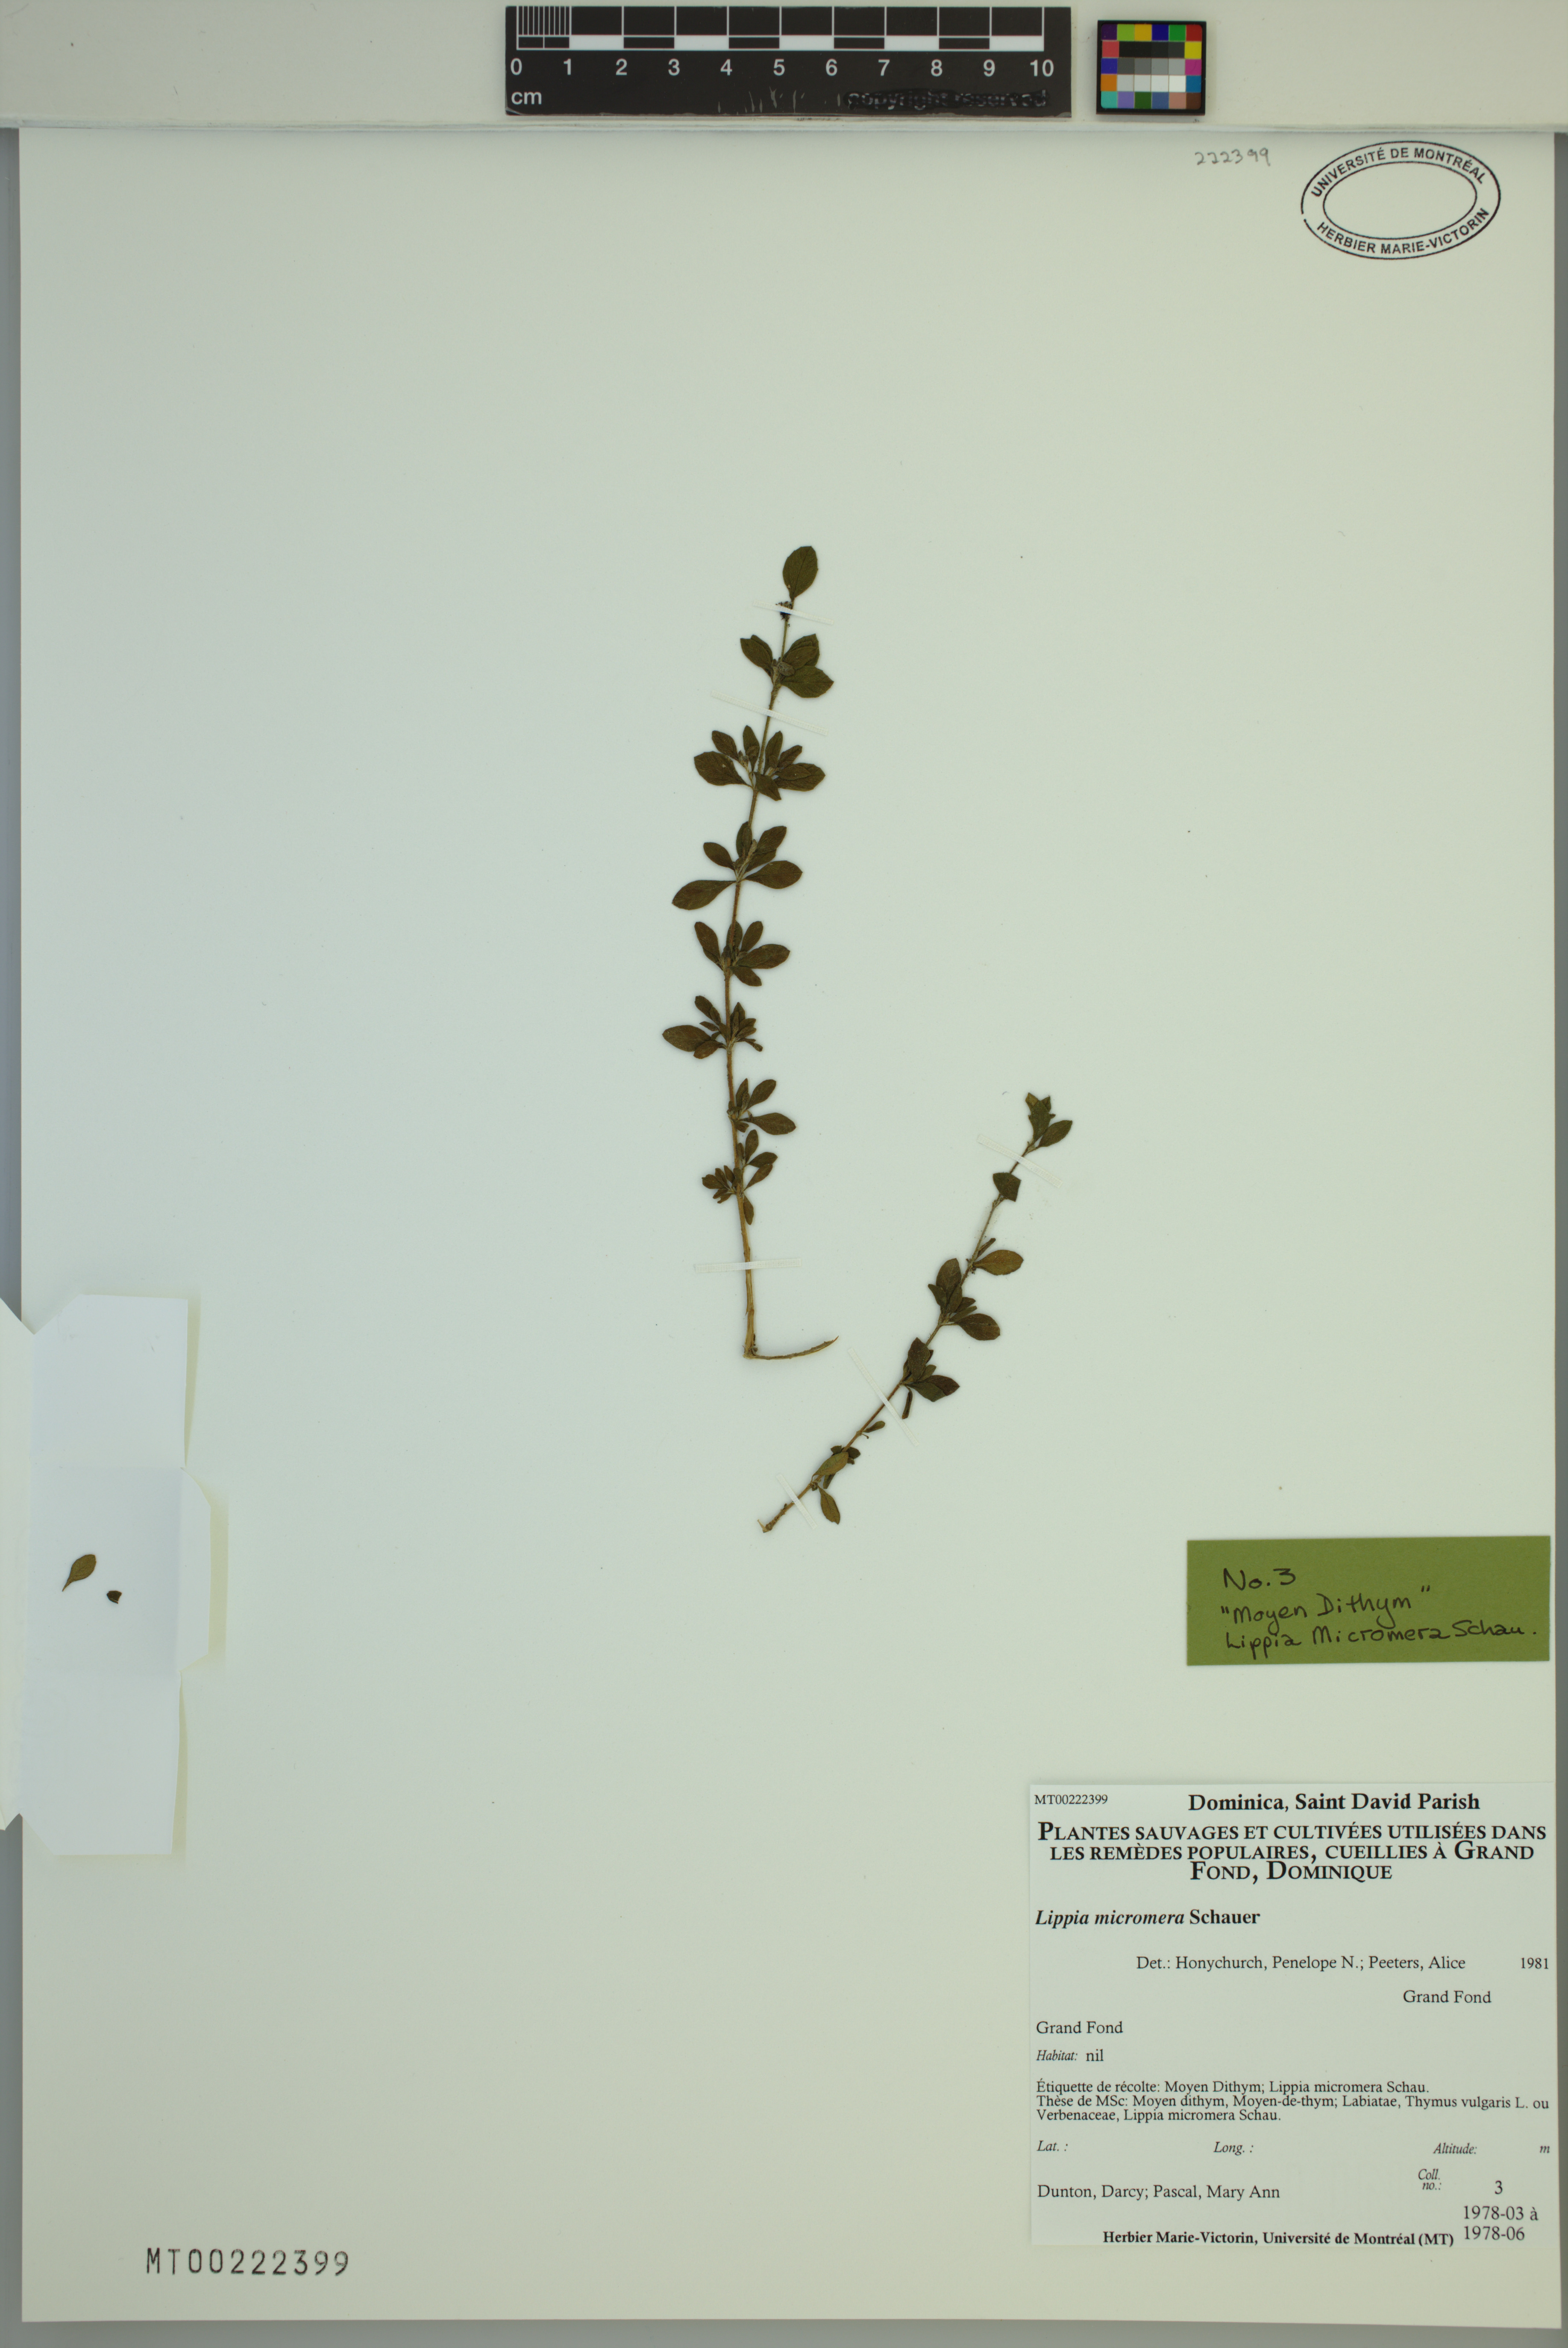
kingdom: Plantae
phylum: Tracheophyta
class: Magnoliopsida
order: Lamiales
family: Verbenaceae
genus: Lippia
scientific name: Lippia micromera
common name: Puerto rican oregano
